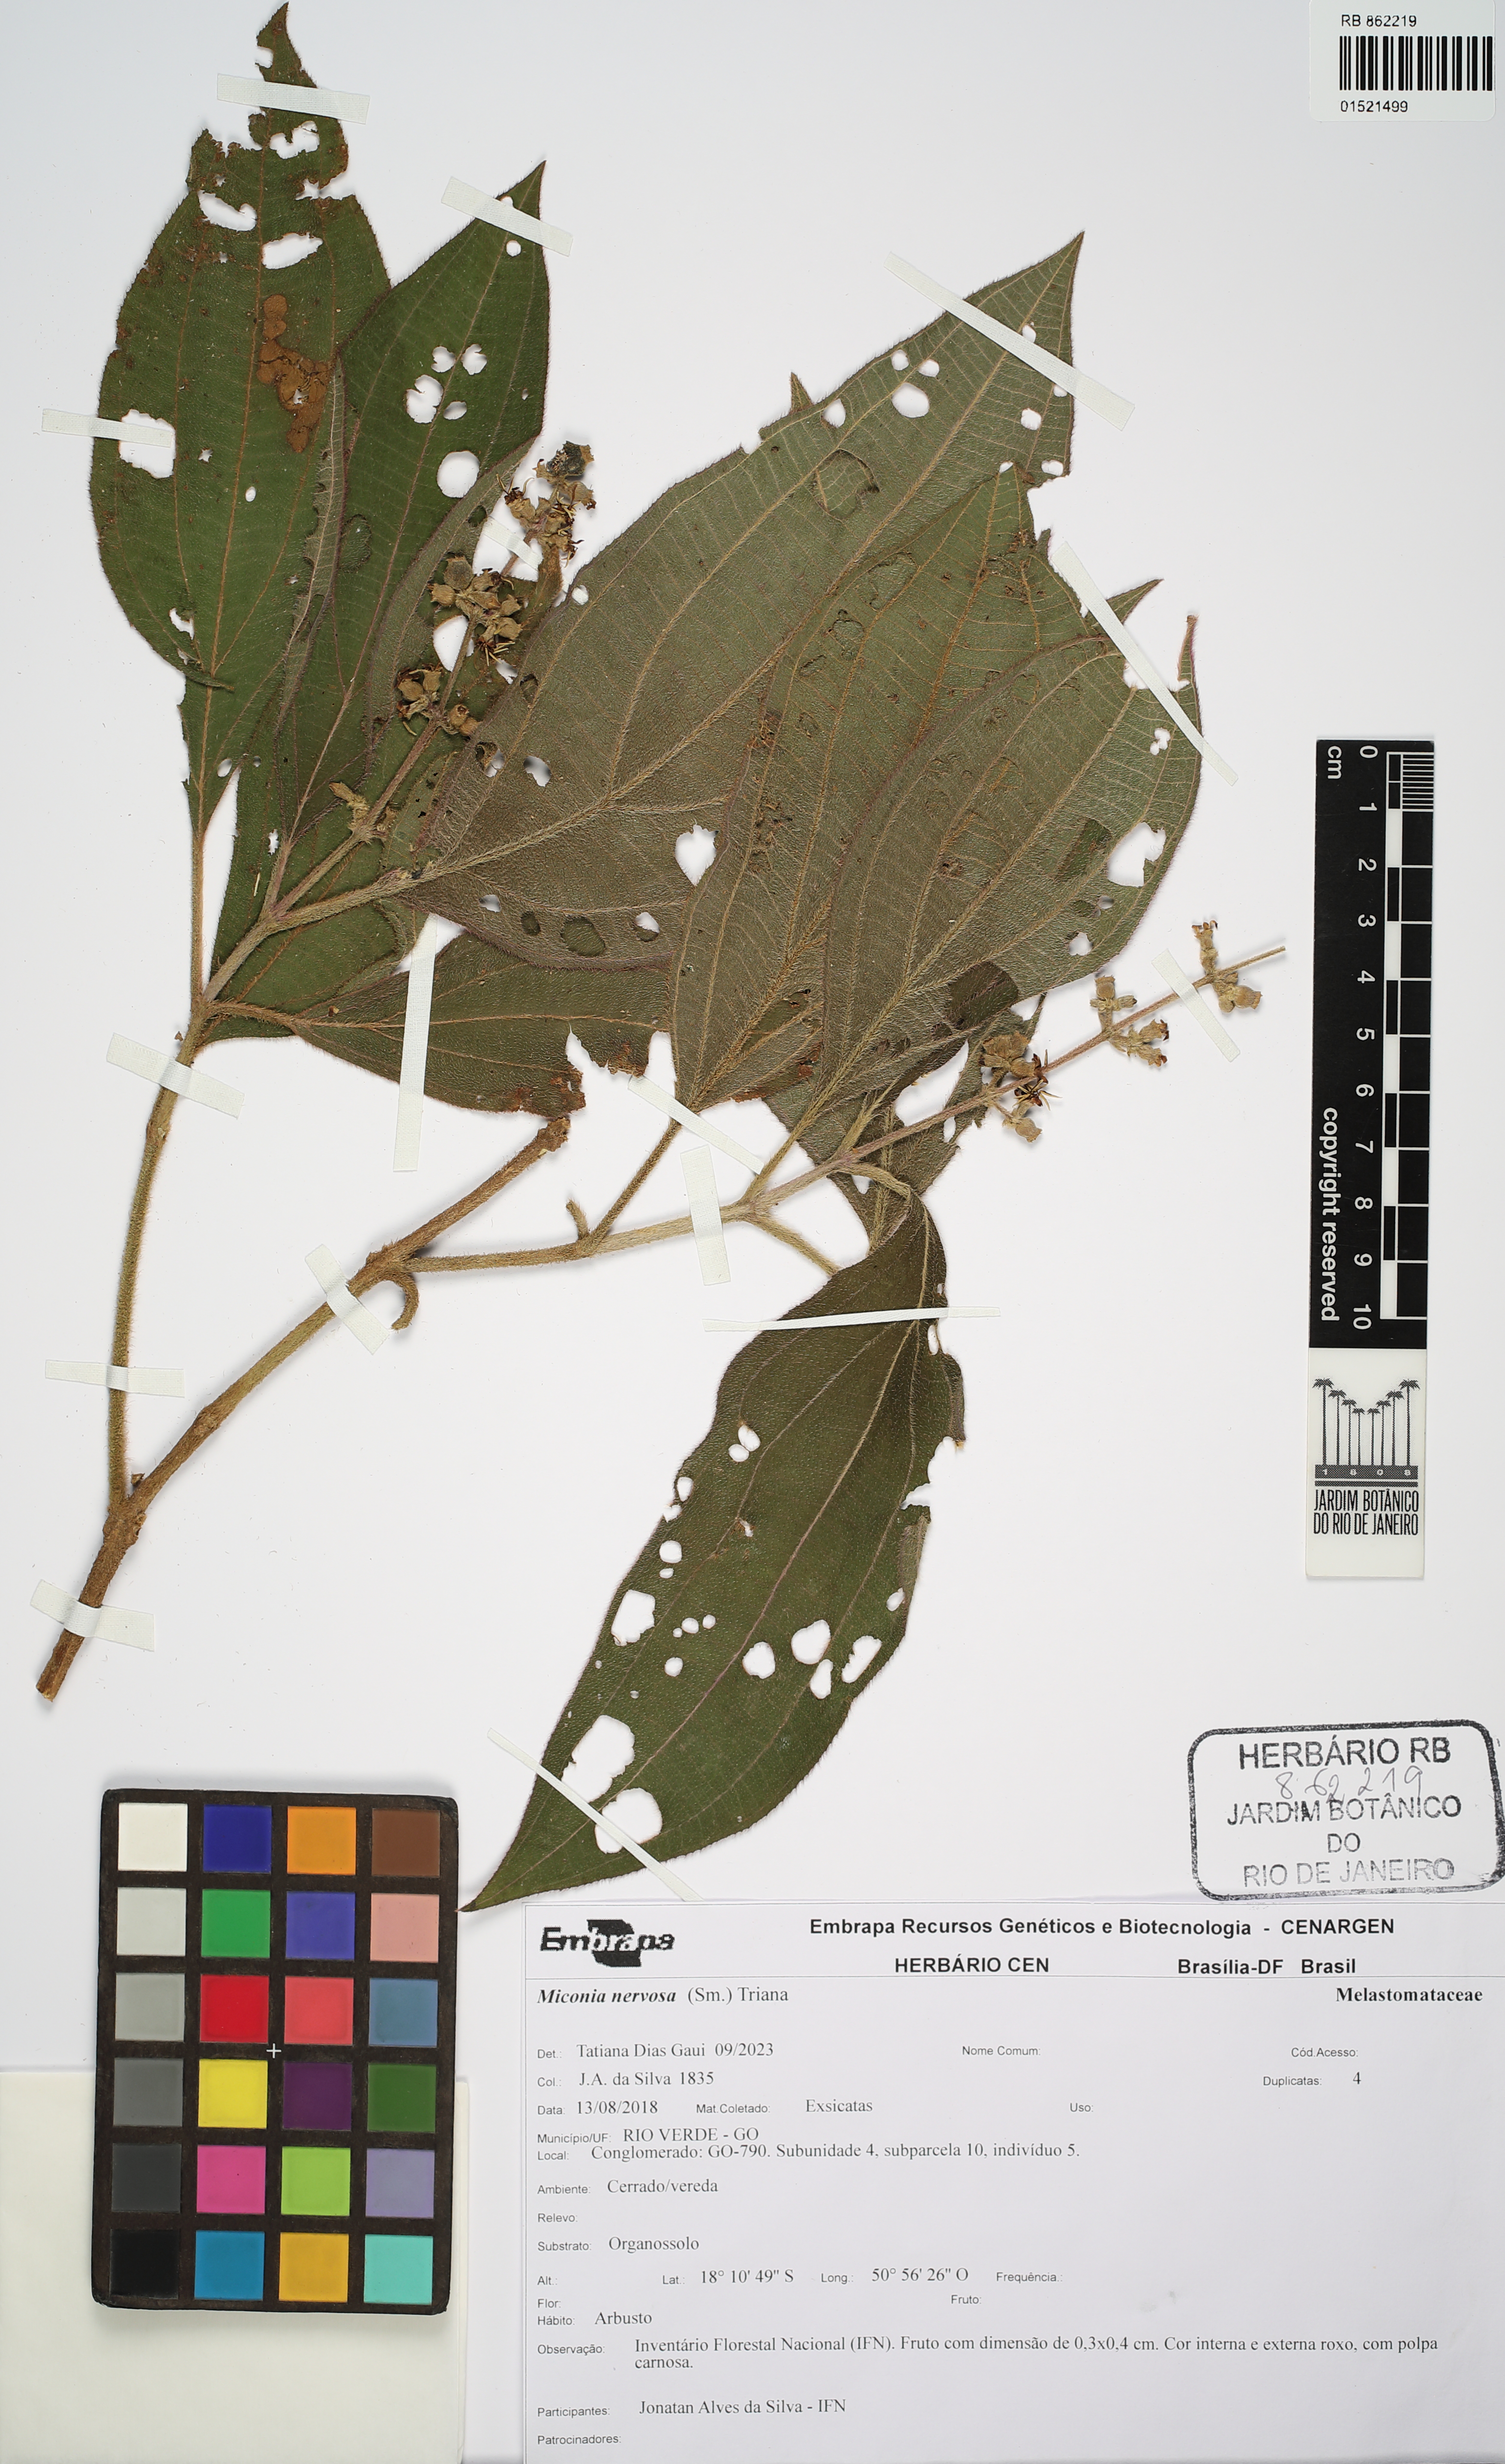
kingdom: Plantae
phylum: Tracheophyta
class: Magnoliopsida
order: Myrtales
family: Melastomataceae
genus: Miconia
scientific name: Miconia nervosa
